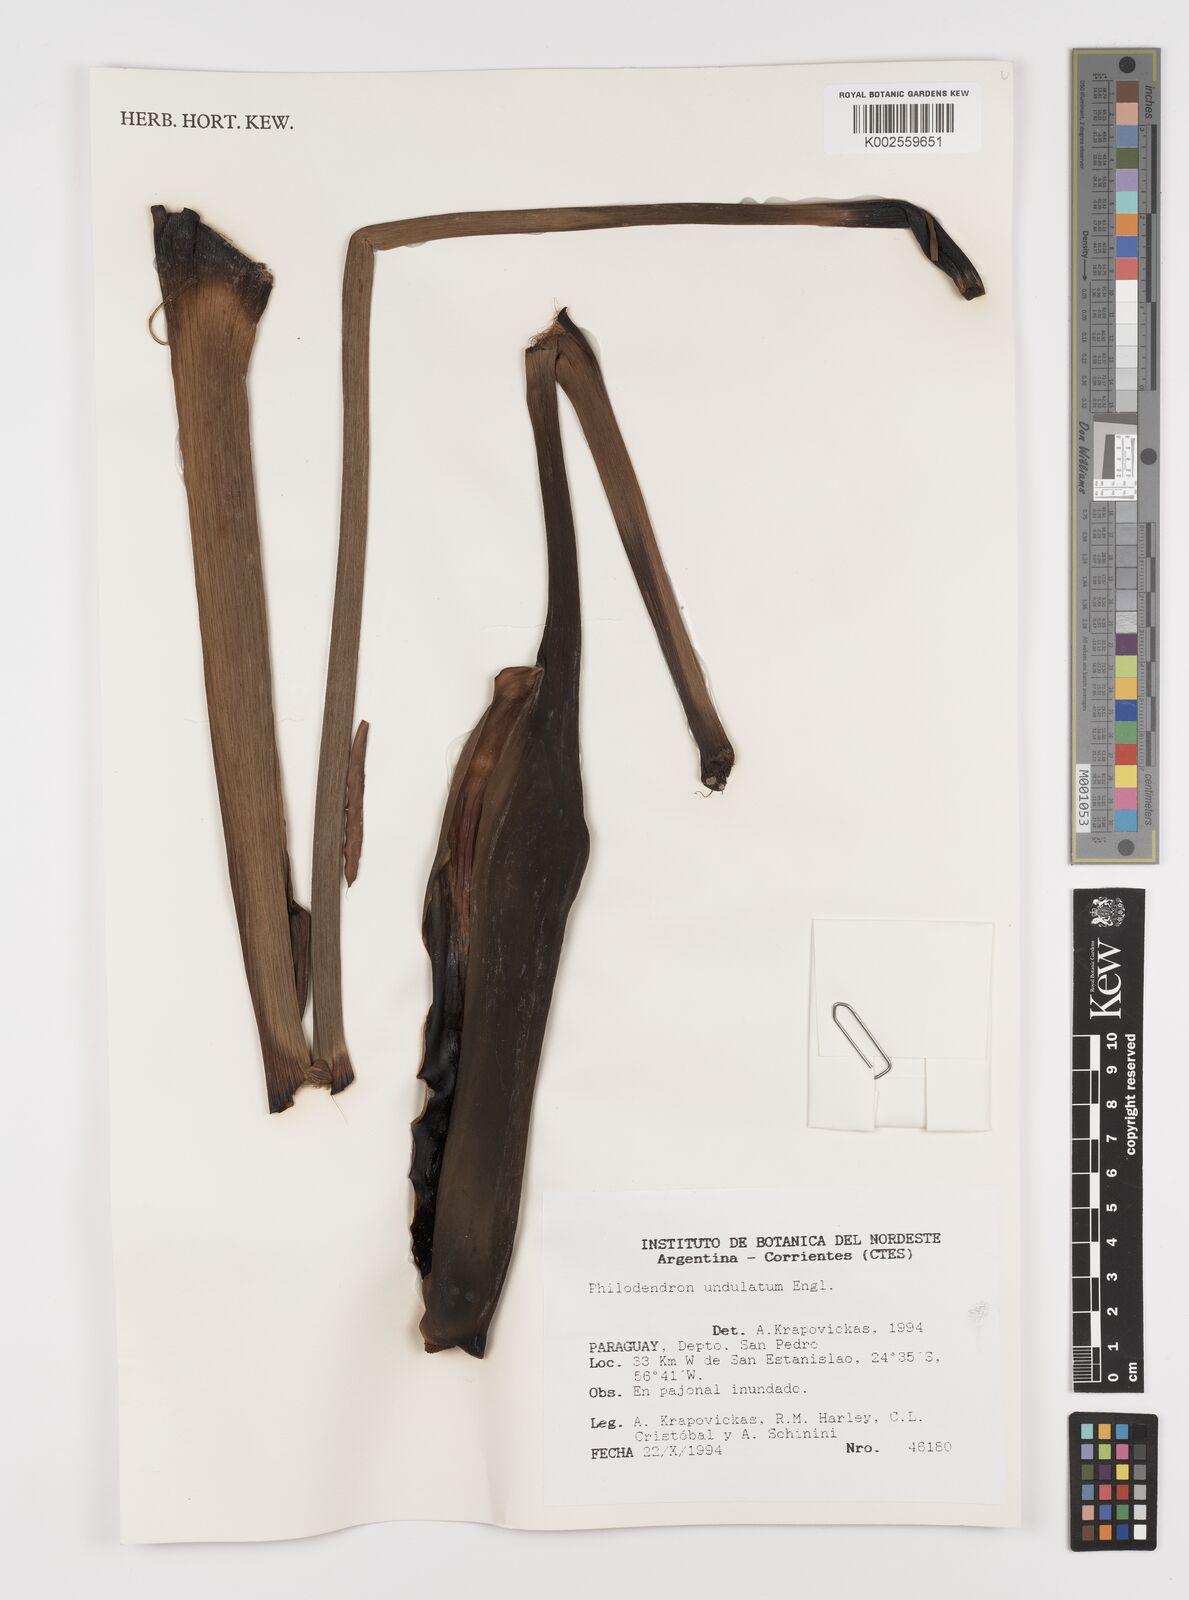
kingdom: Plantae
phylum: Tracheophyta
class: Liliopsida
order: Alismatales
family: Araceae
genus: Thaumatophyllum
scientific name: Thaumatophyllum undulatum
